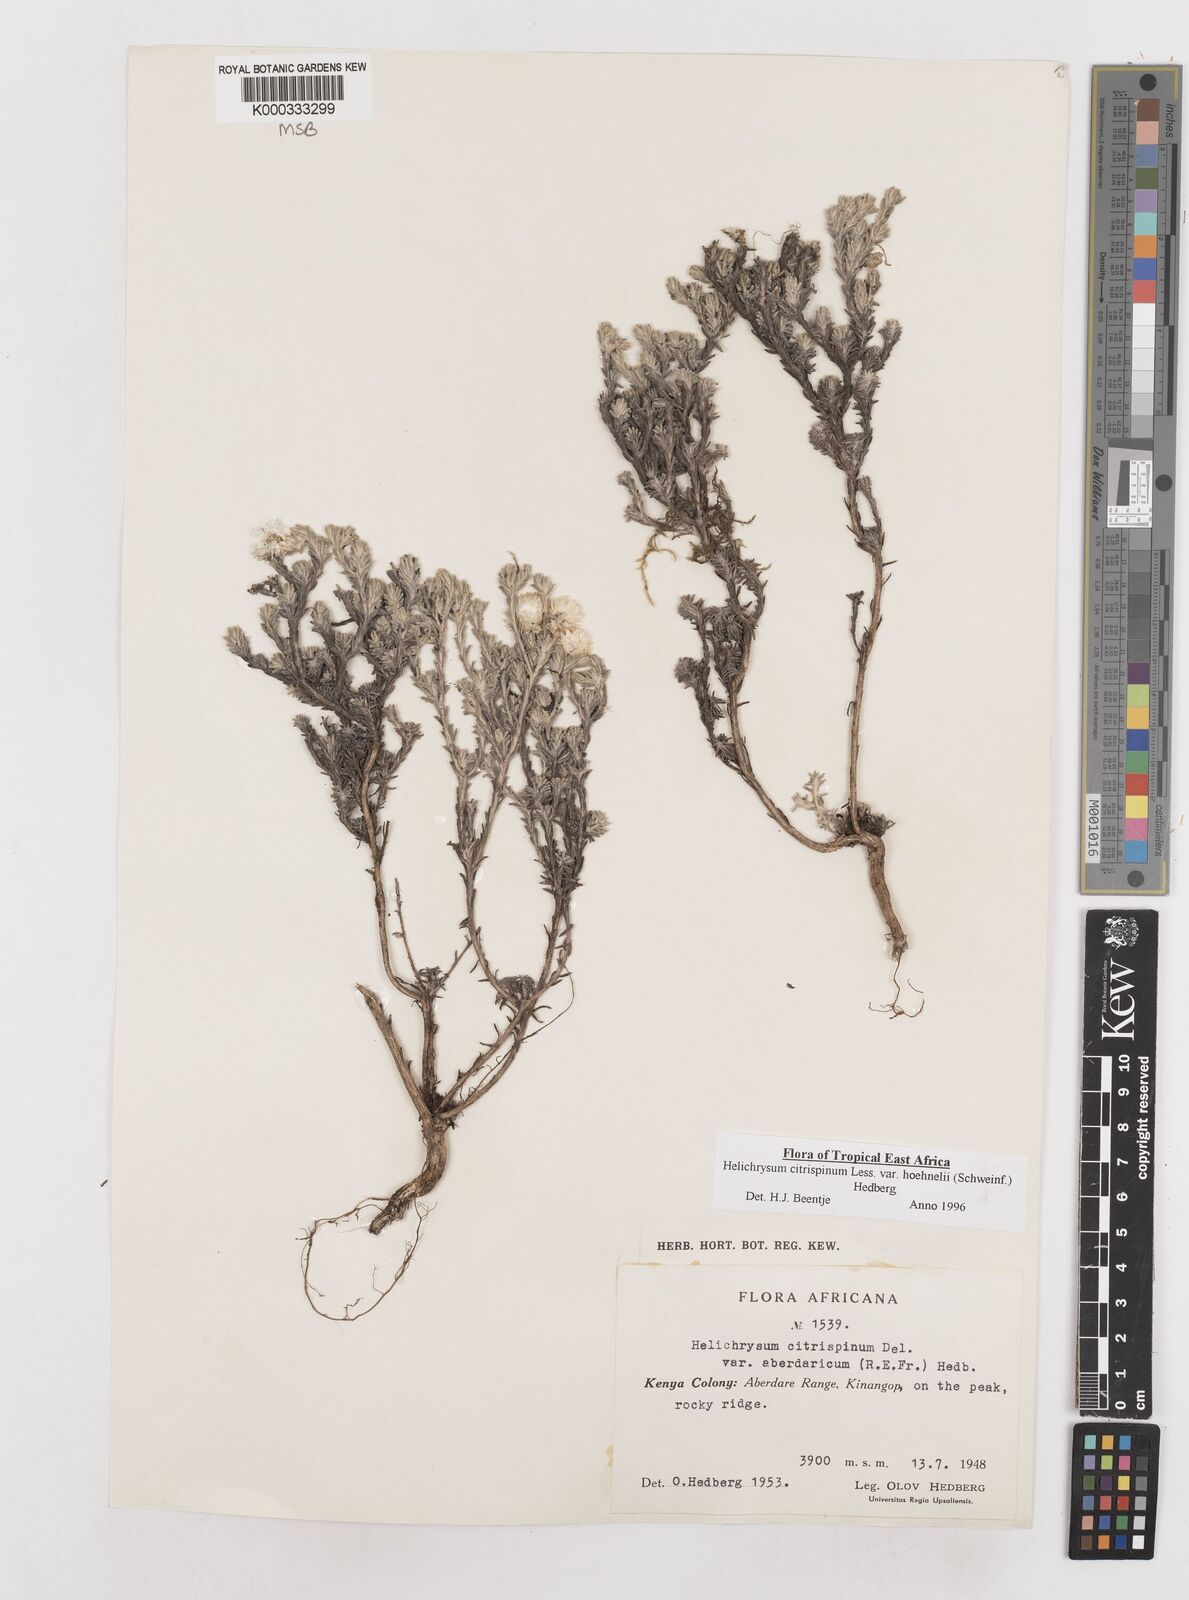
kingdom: Plantae
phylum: Tracheophyta
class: Magnoliopsida
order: Asterales
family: Asteraceae
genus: Helichrysum
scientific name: Helichrysum citrispinum
